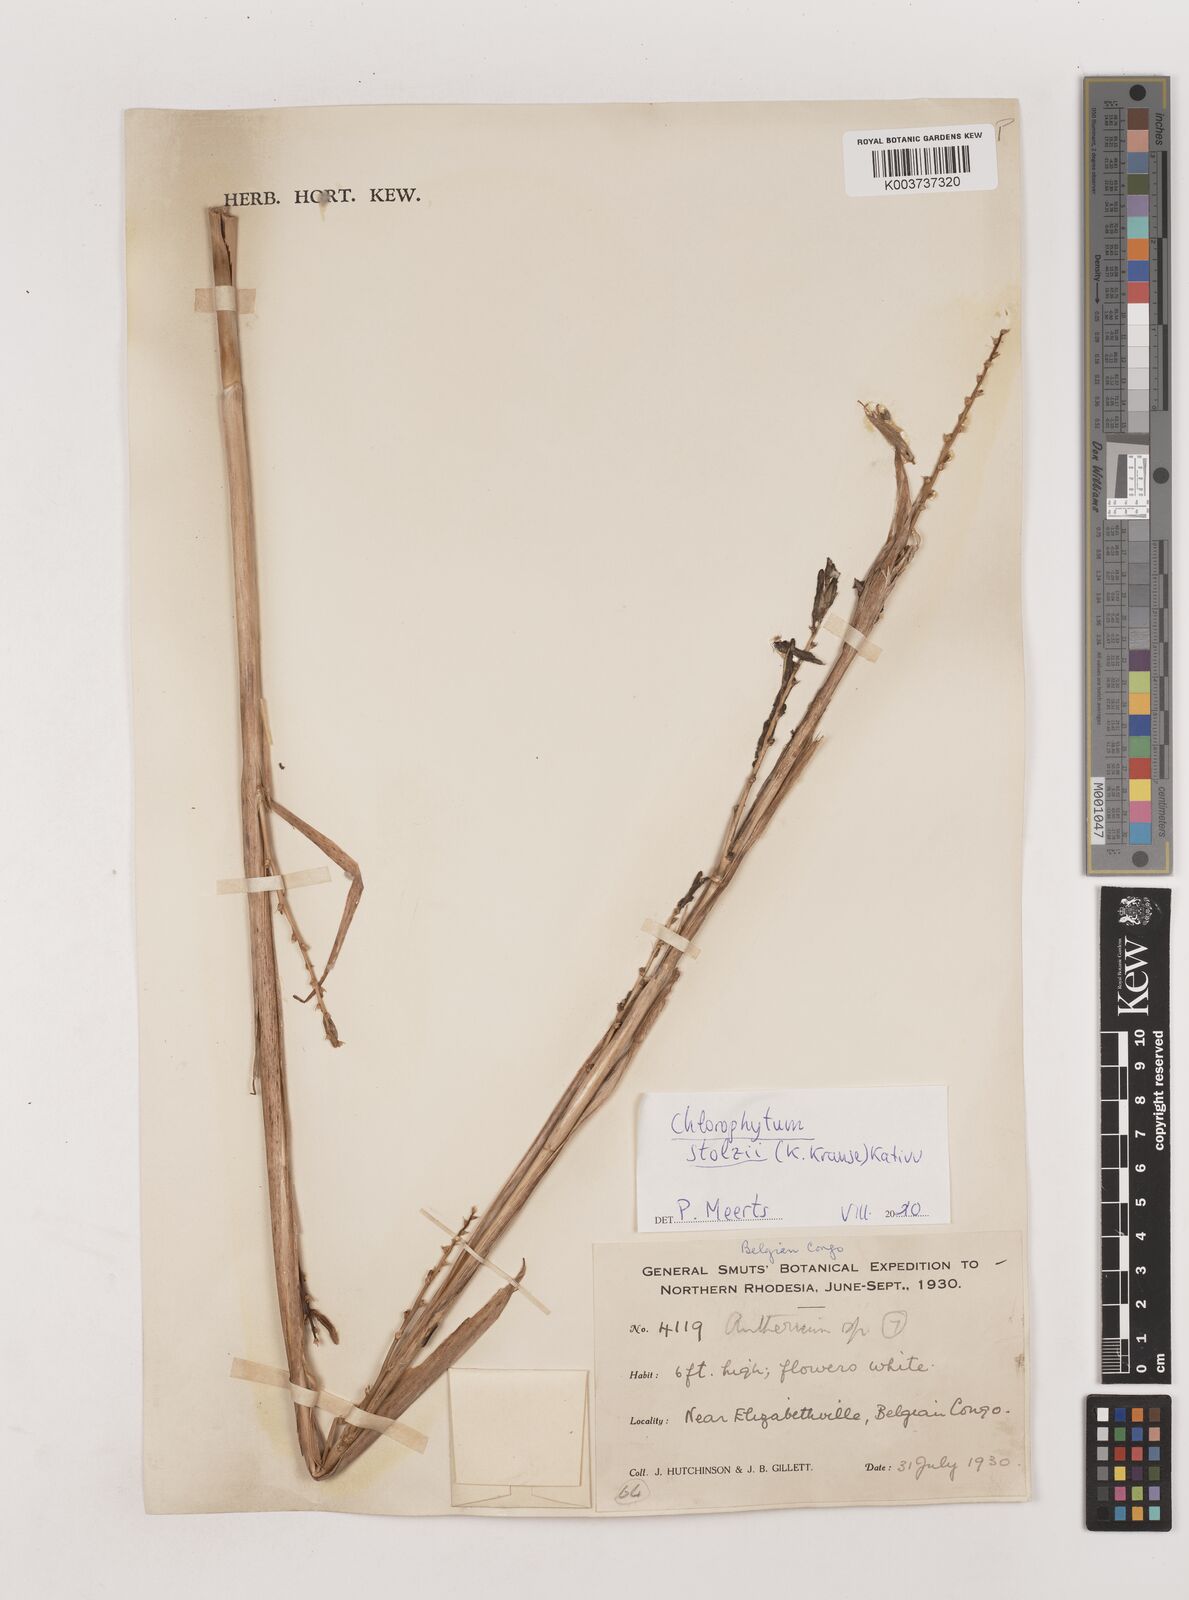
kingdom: Plantae
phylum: Tracheophyta
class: Liliopsida
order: Asparagales
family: Asparagaceae
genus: Chlorophytum
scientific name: Chlorophytum stolzii
